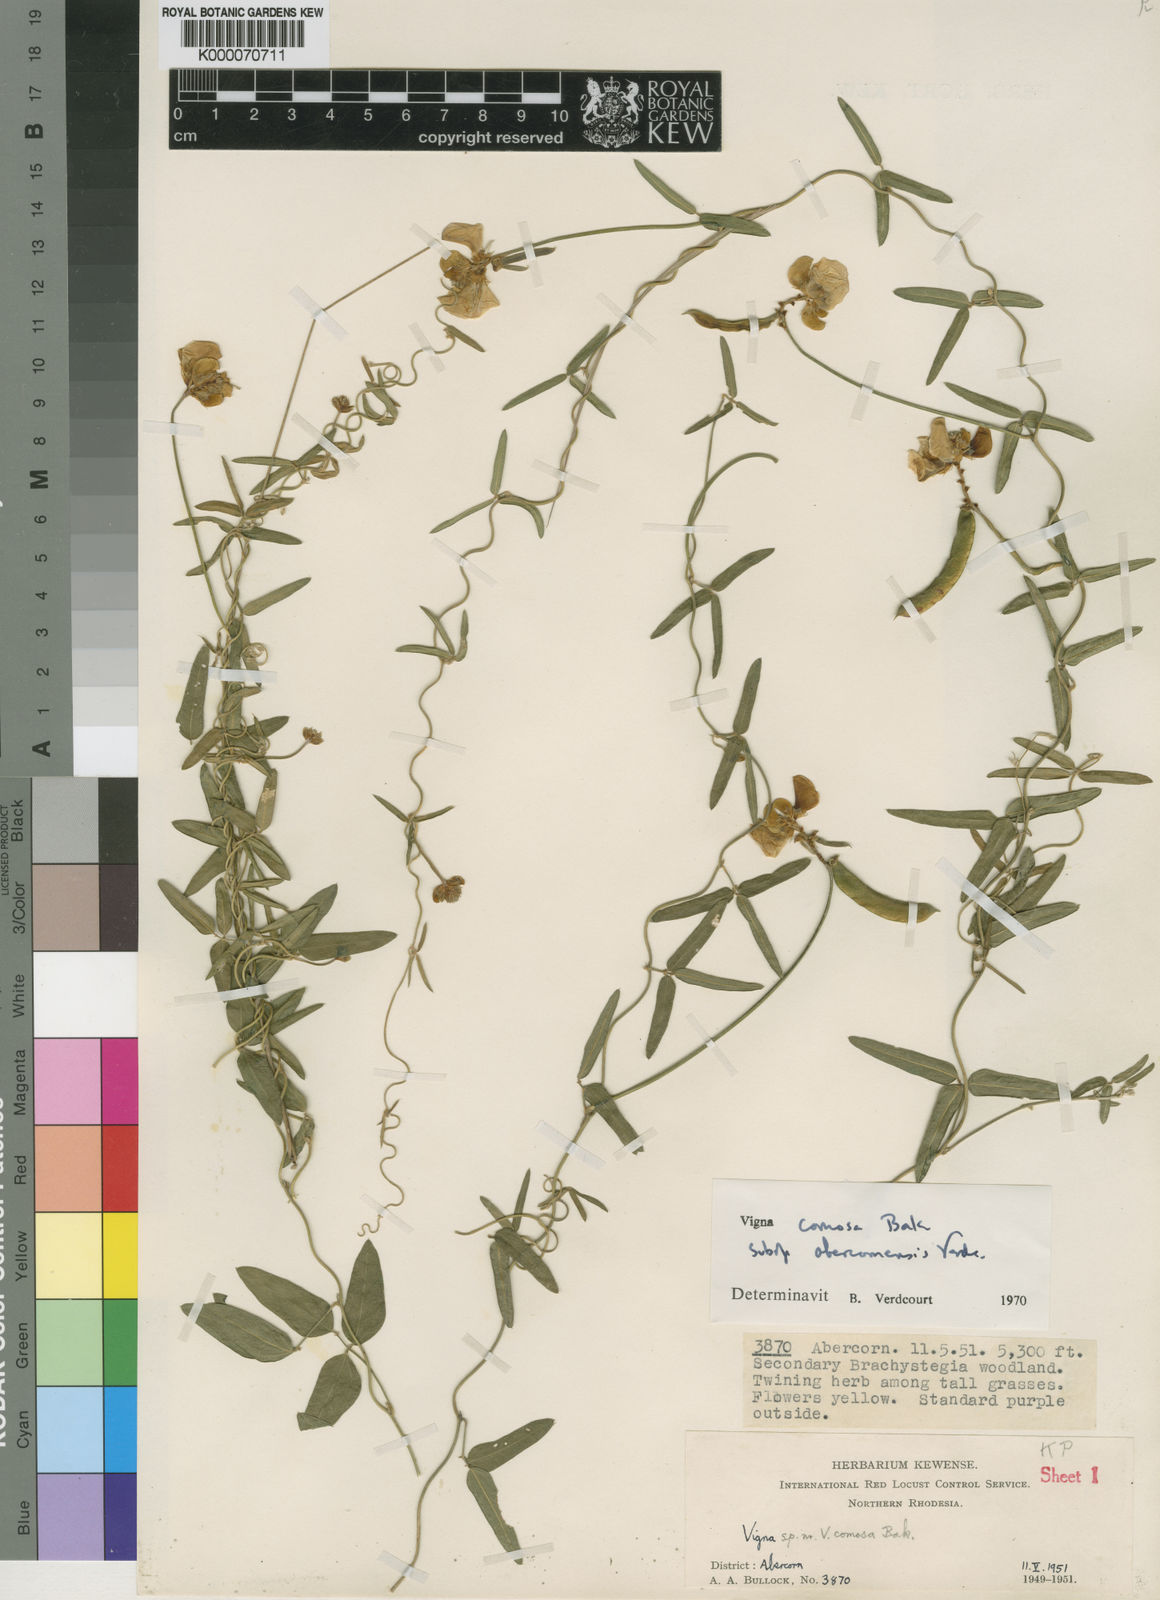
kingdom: Plantae
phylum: Tracheophyta
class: Magnoliopsida
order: Fabales
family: Fabaceae
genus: Vigna
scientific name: Vigna comosa
